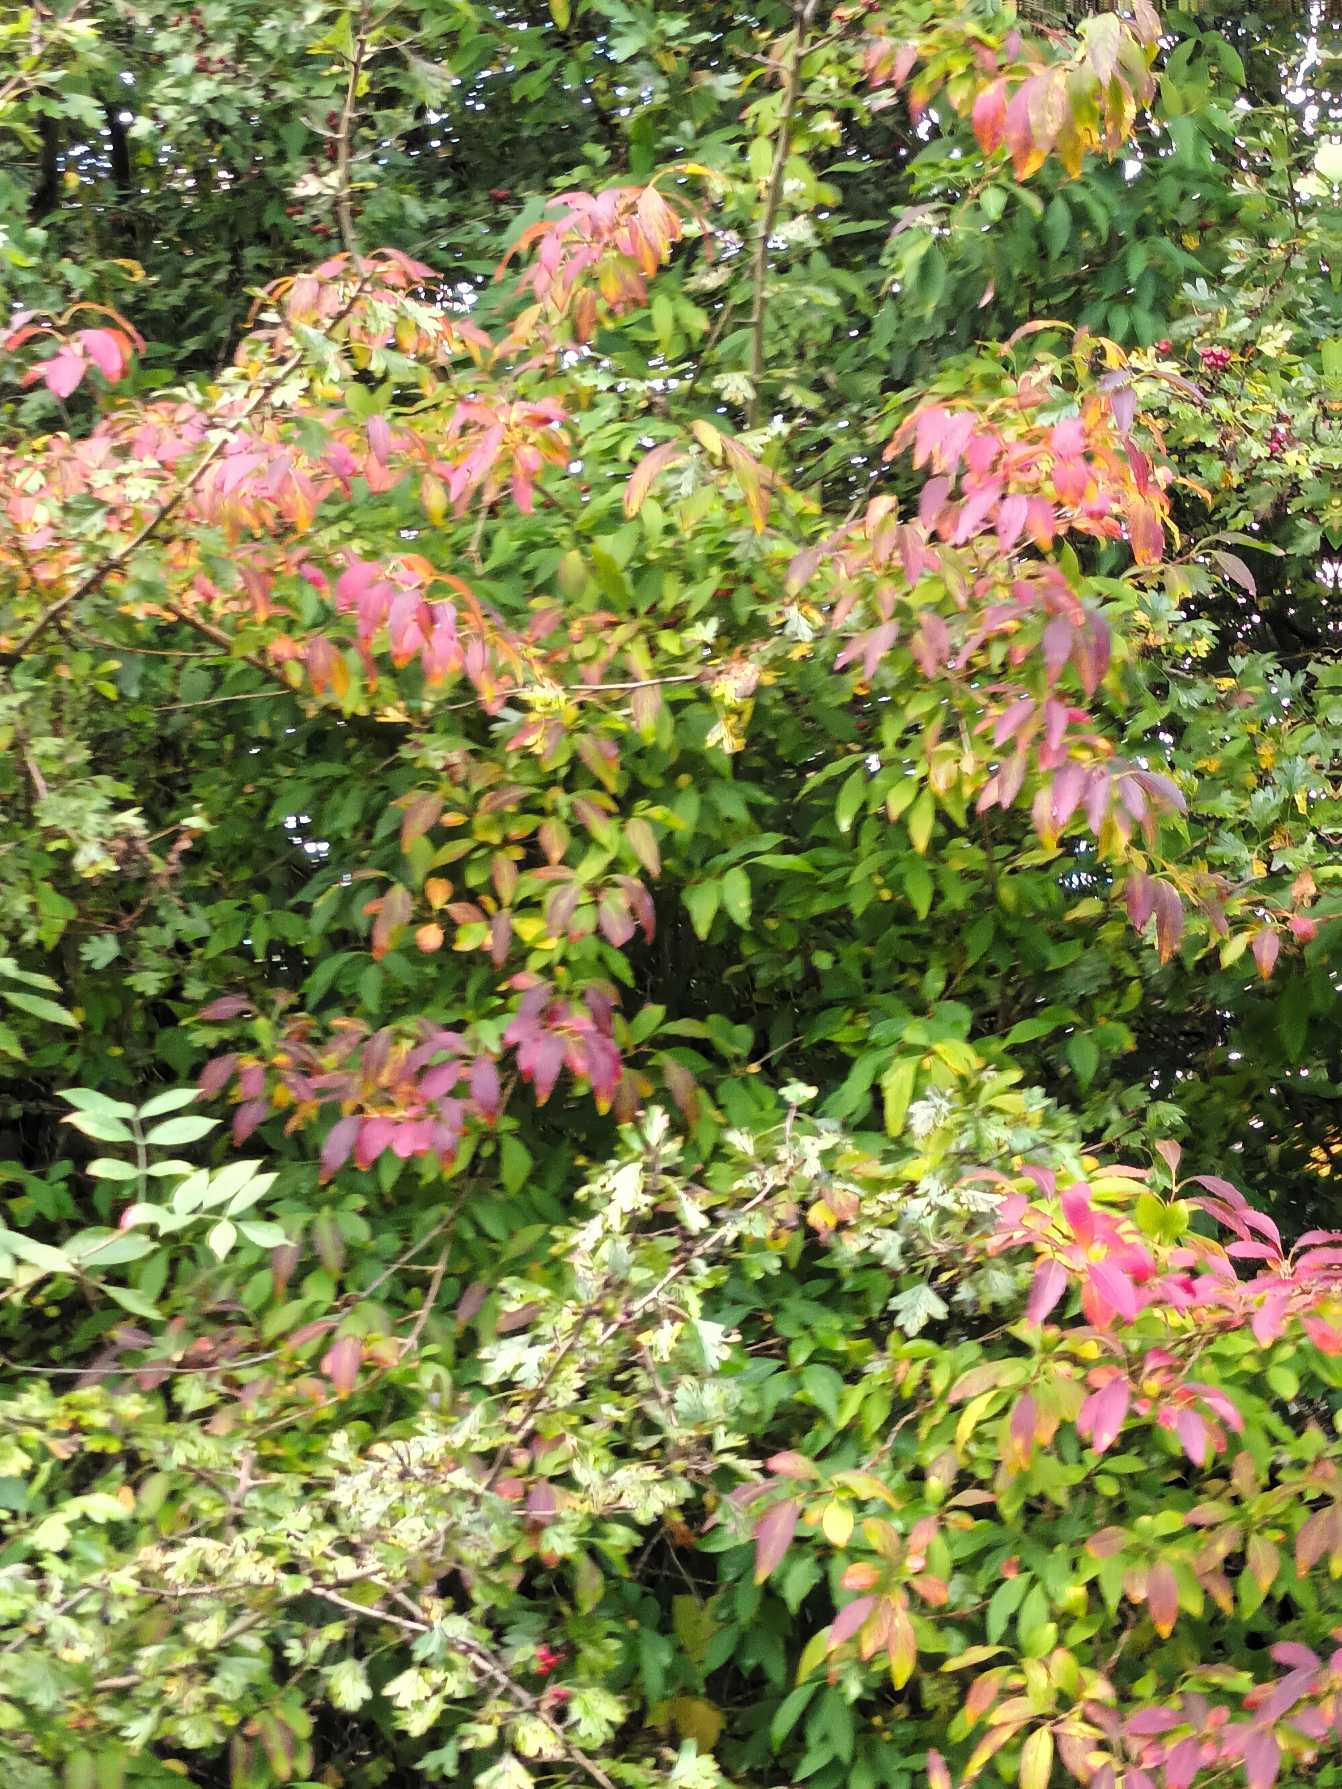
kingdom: Plantae
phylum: Tracheophyta
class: Magnoliopsida
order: Lamiales
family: Oleaceae
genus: Forsythia
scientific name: Forsythia
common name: Forsythiaslægten
